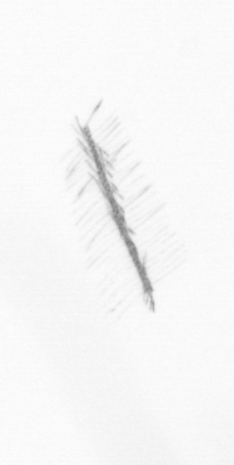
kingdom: Chromista
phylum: Ochrophyta
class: Bacillariophyceae
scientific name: Bacillariophyceae
